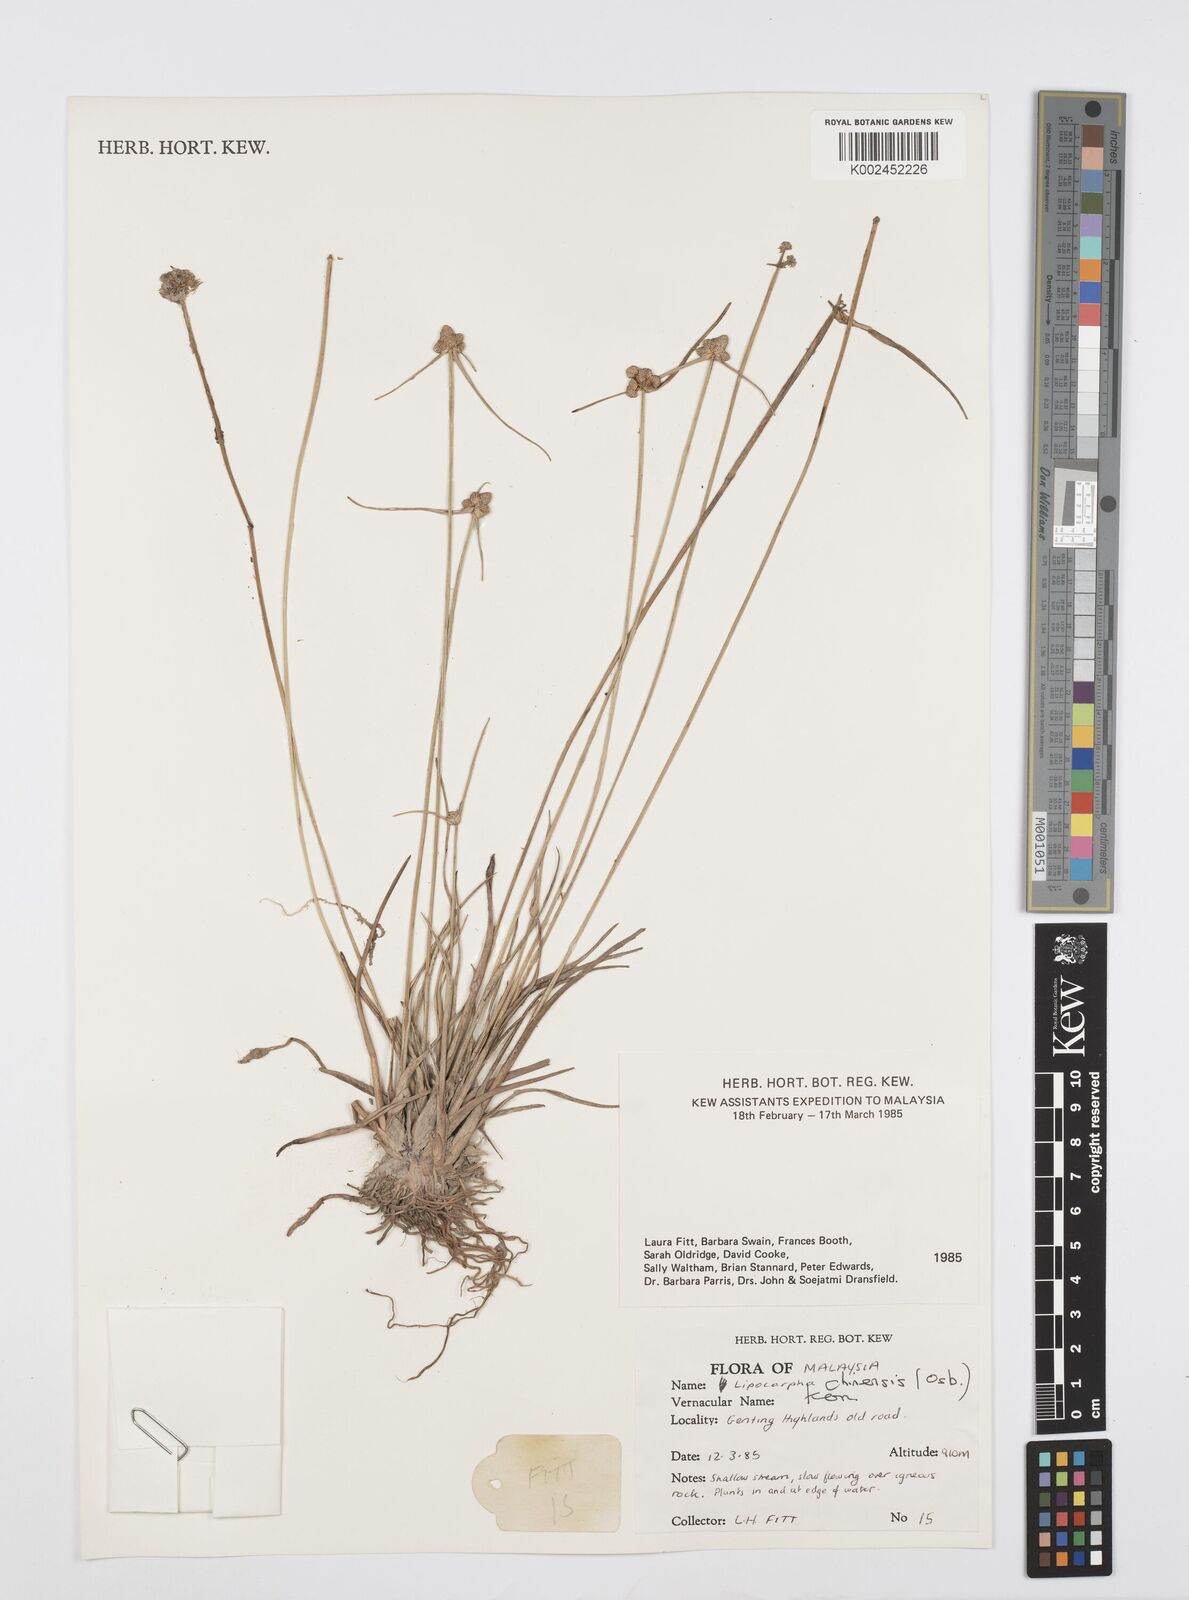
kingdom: Plantae
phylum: Tracheophyta
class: Liliopsida
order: Poales
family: Cyperaceae
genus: Cyperus
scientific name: Cyperus
